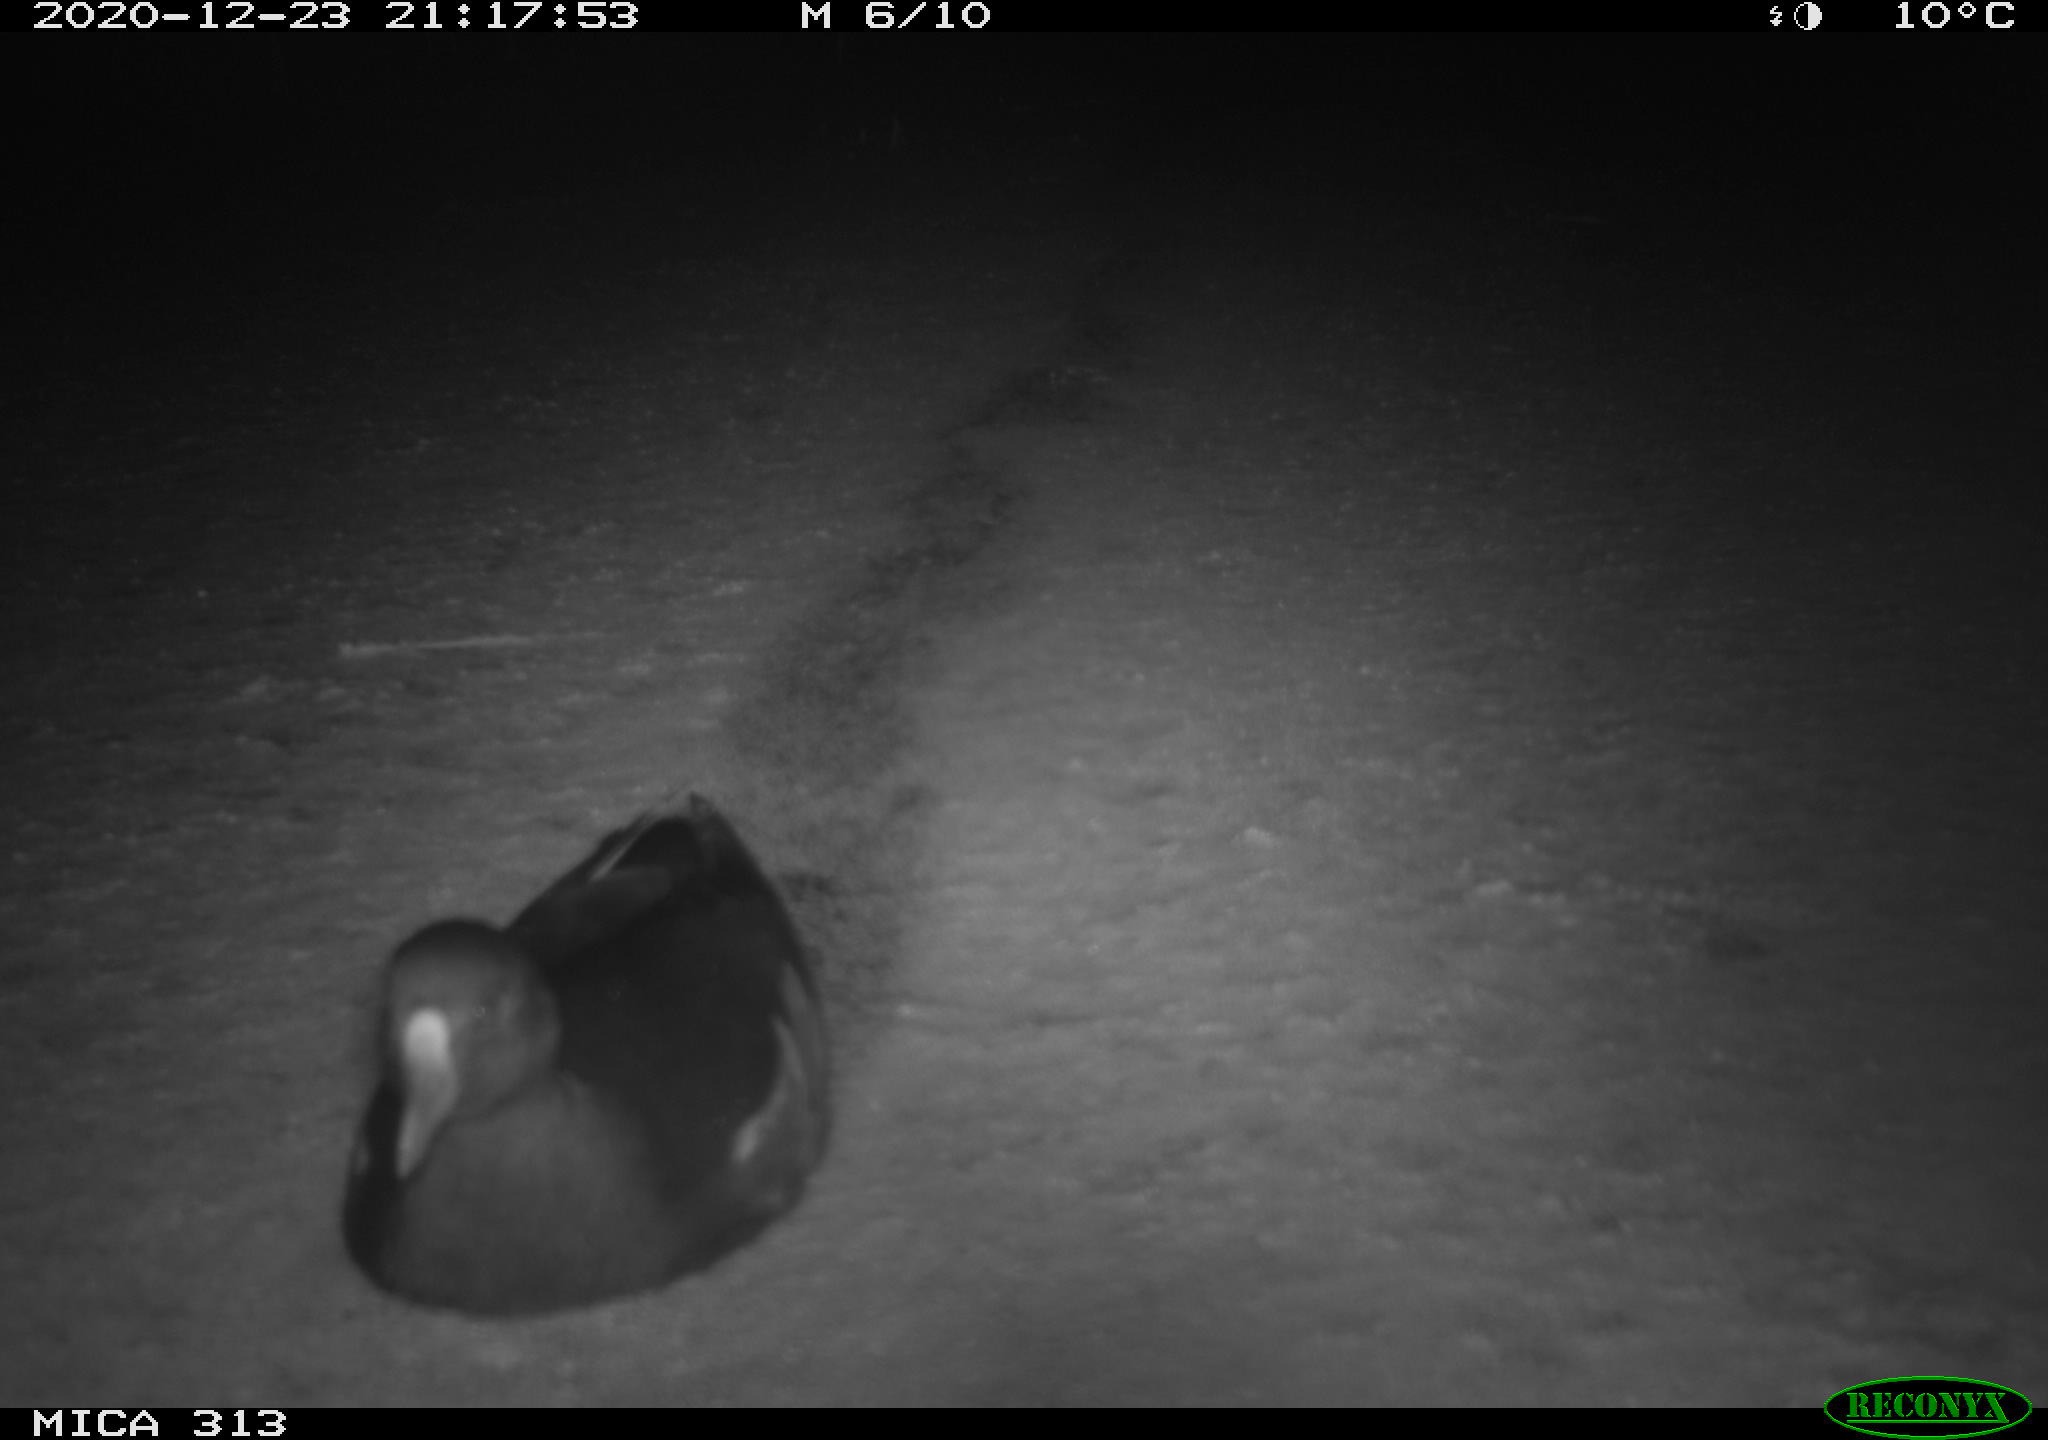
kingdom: Animalia
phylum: Chordata
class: Aves
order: Gruiformes
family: Rallidae
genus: Fulica
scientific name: Fulica atra
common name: Eurasian coot
